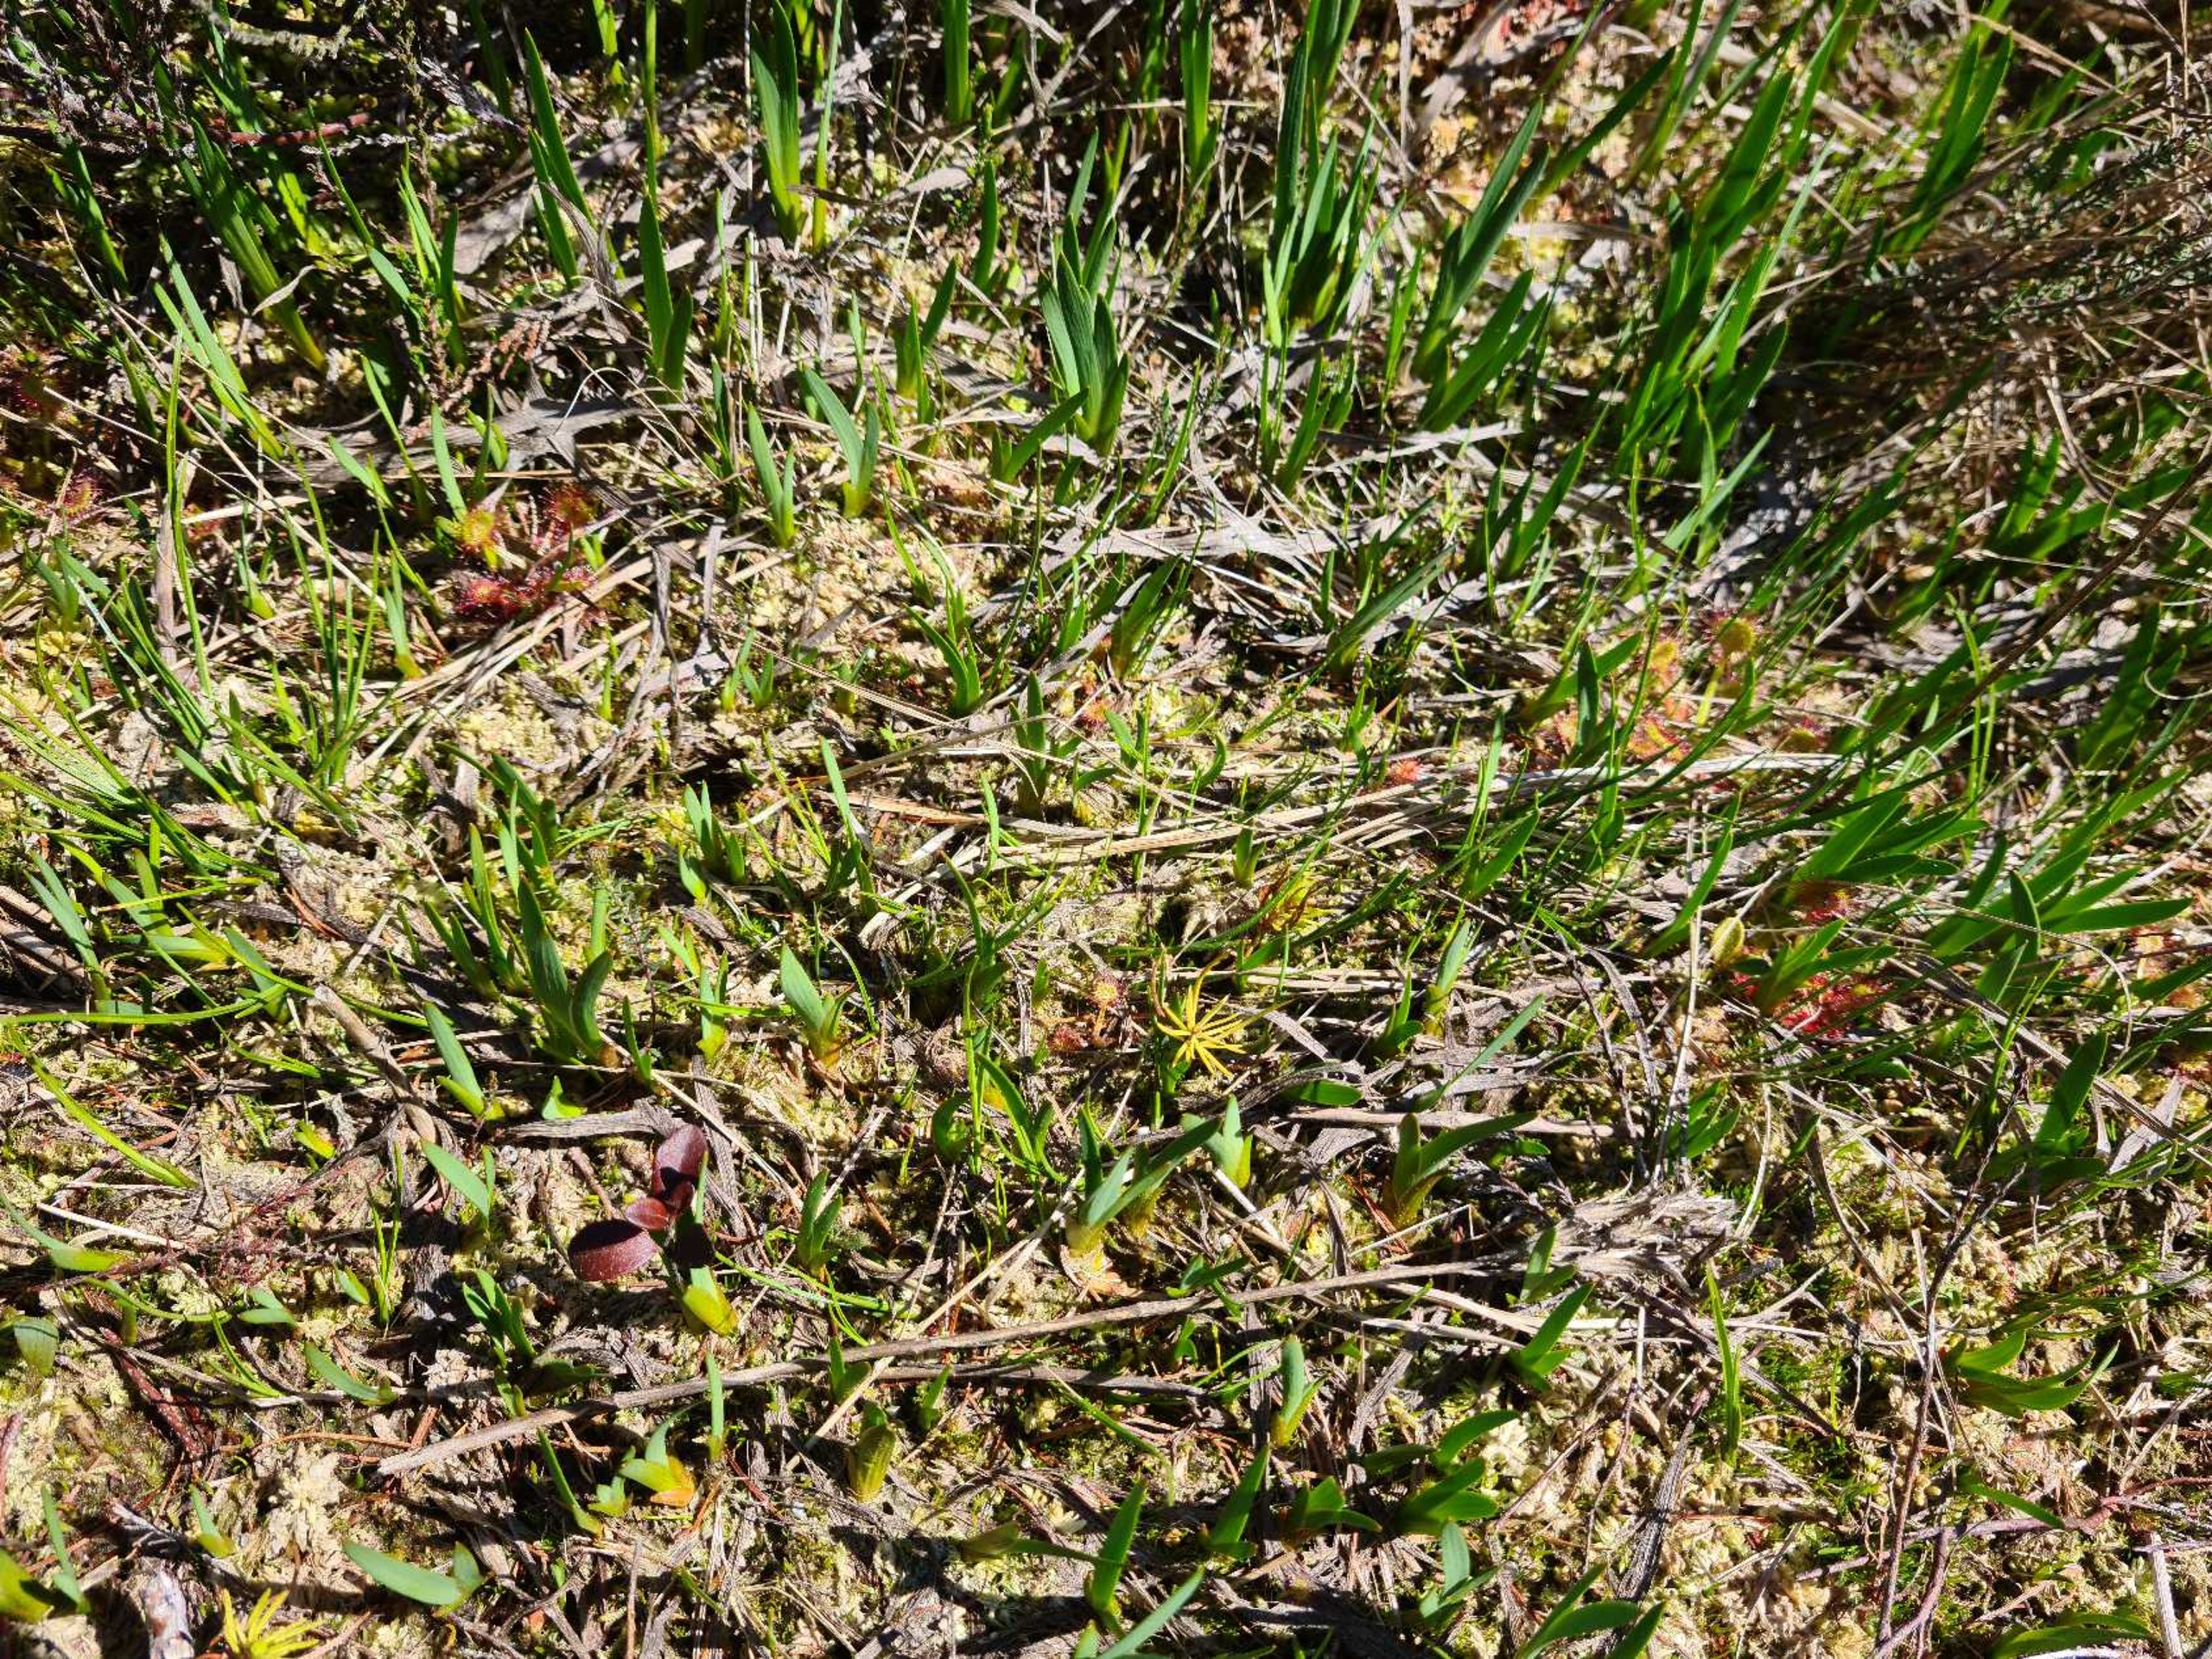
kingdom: Plantae
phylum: Tracheophyta
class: Liliopsida
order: Dioscoreales
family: Nartheciaceae
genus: Narthecium
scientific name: Narthecium ossifragum
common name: Benbræk
